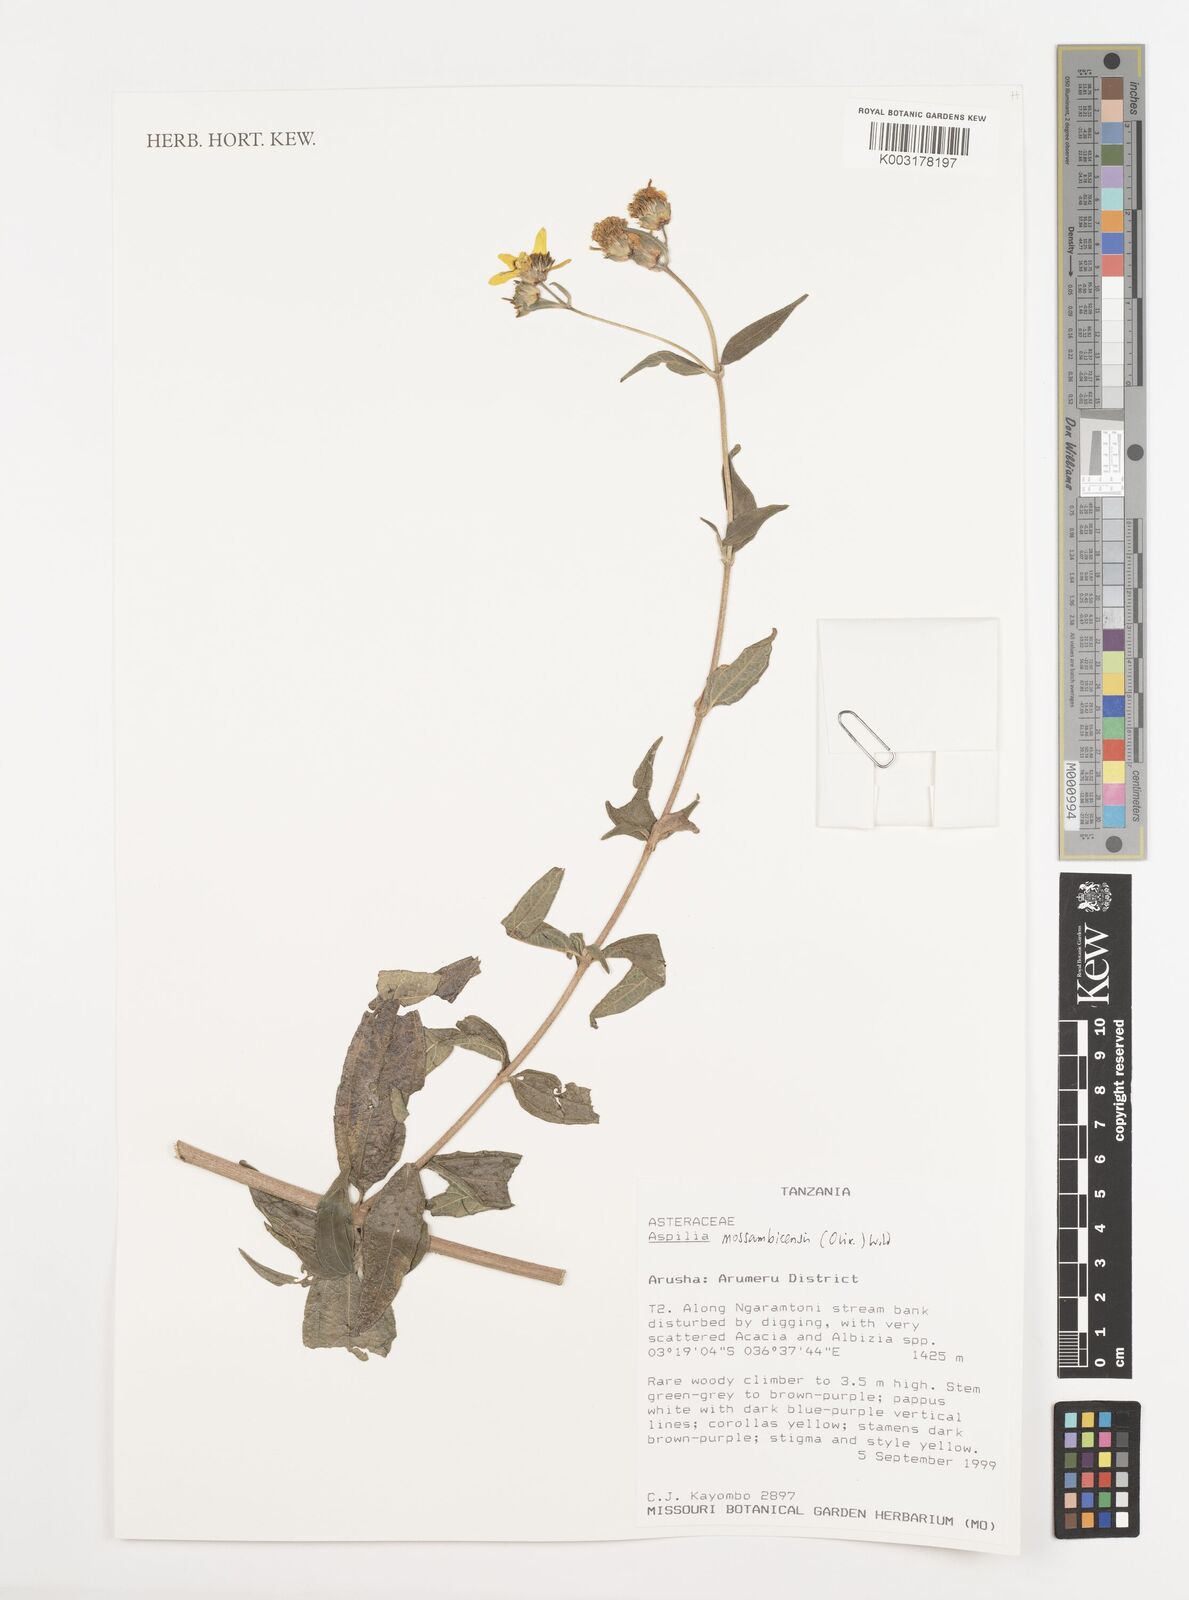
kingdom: Plantae
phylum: Tracheophyta
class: Magnoliopsida
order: Asterales
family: Asteraceae
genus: Aspilia
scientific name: Aspilia mossambicensis
